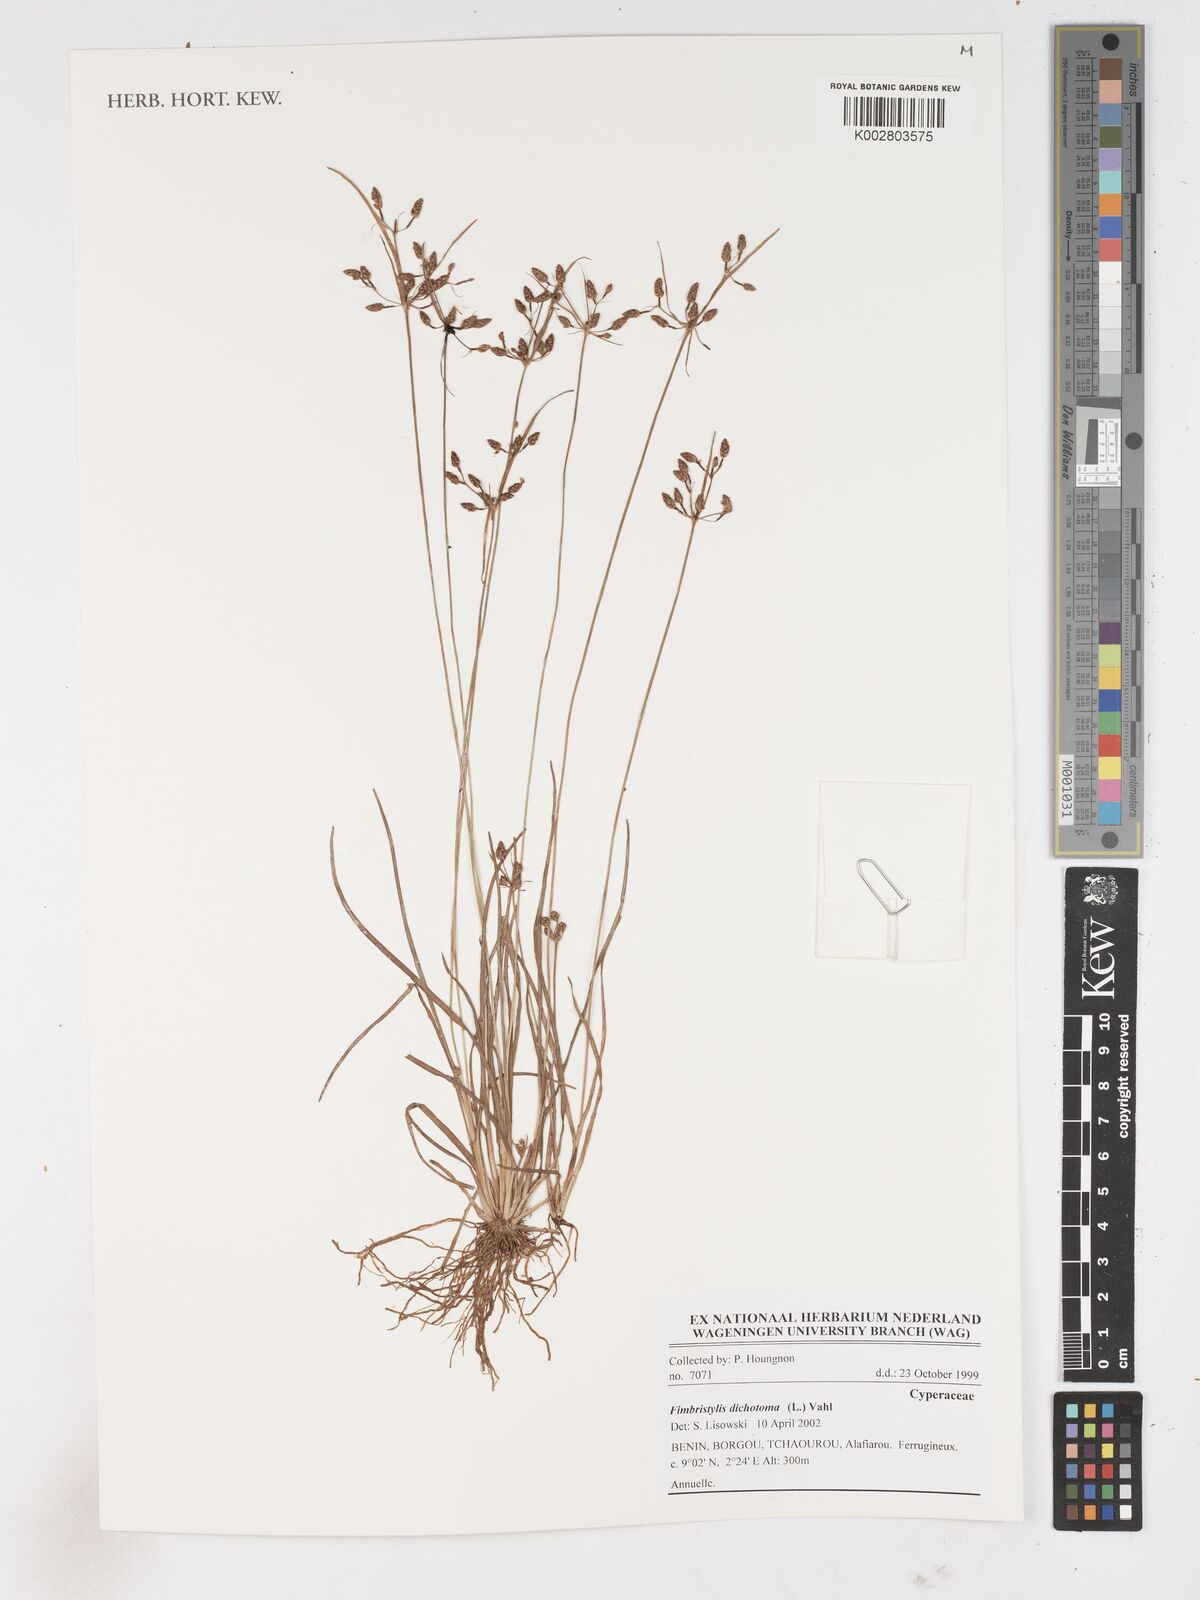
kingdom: Plantae
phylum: Tracheophyta
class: Liliopsida
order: Poales
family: Cyperaceae
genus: Fimbristylis
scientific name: Fimbristylis dichotoma
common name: Forked fimbry
